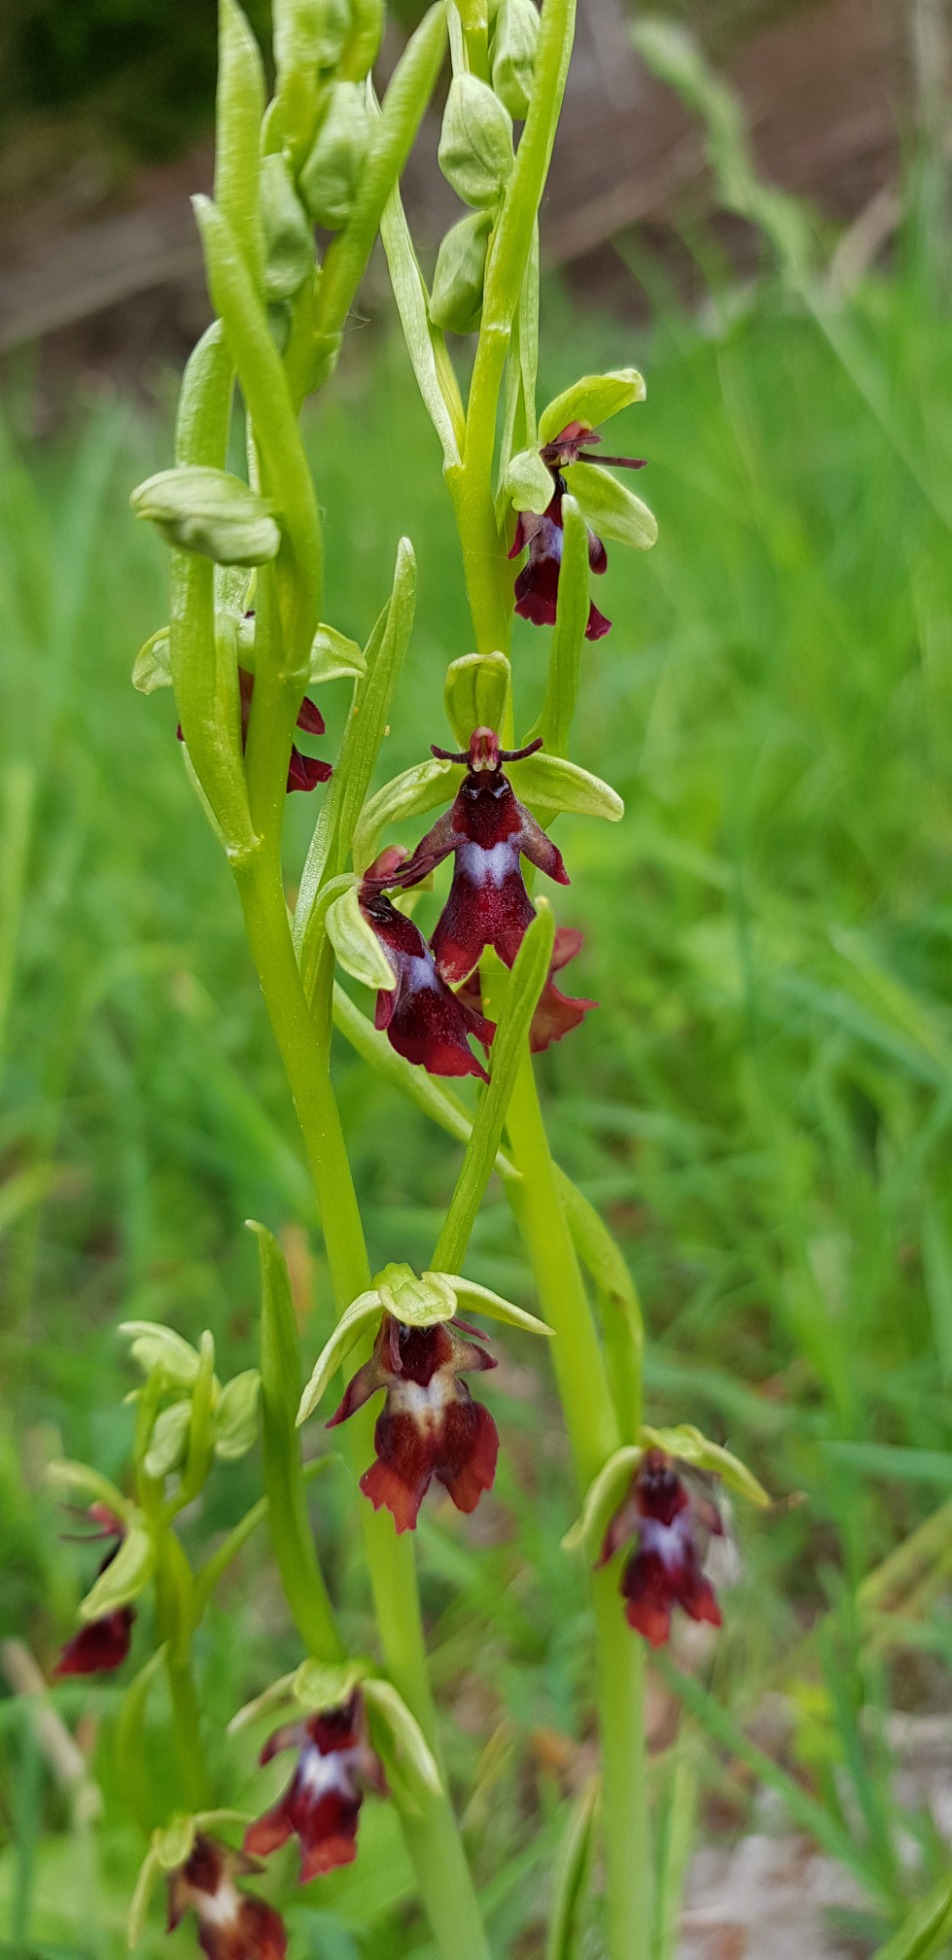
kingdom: Plantae
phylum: Tracheophyta
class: Liliopsida
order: Asparagales
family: Orchidaceae
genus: Ophrys
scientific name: Ophrys insectifera
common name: Flueblomst
